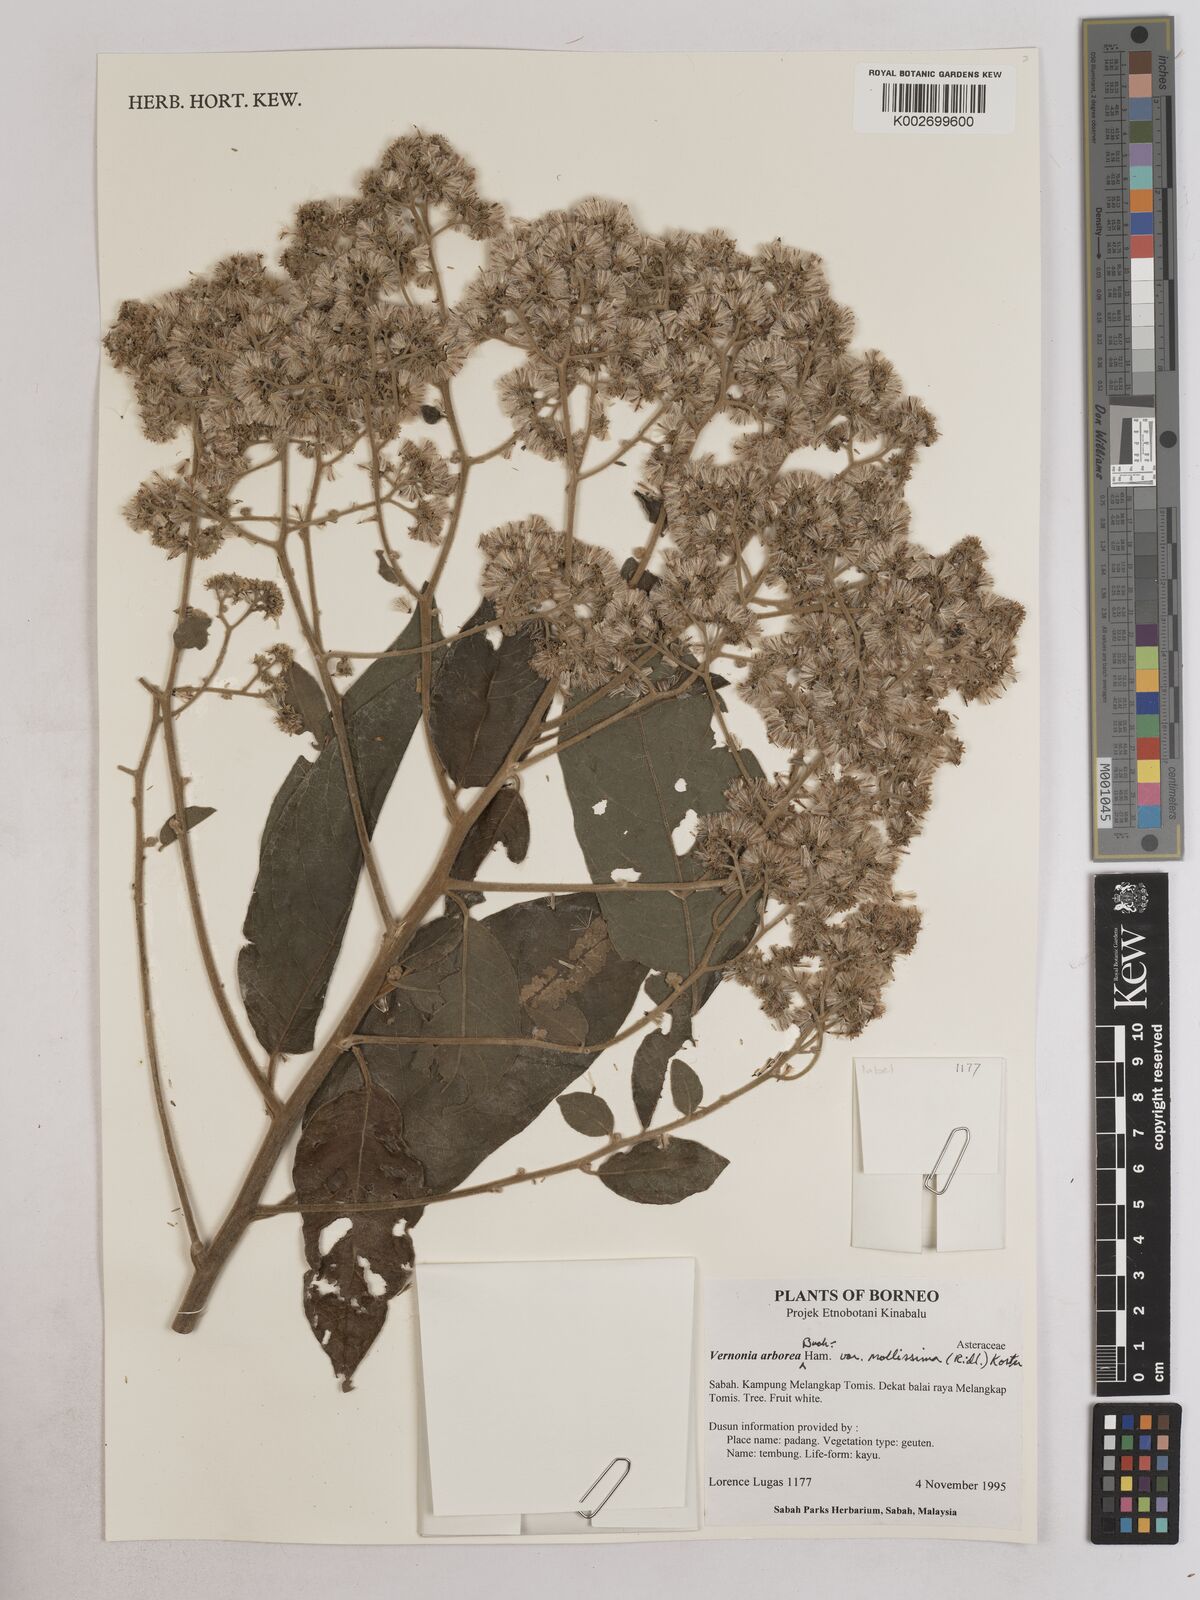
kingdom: Plantae
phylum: Tracheophyta
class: Magnoliopsida
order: Asterales
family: Asteraceae
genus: Strobocalyx
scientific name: Strobocalyx arborea
